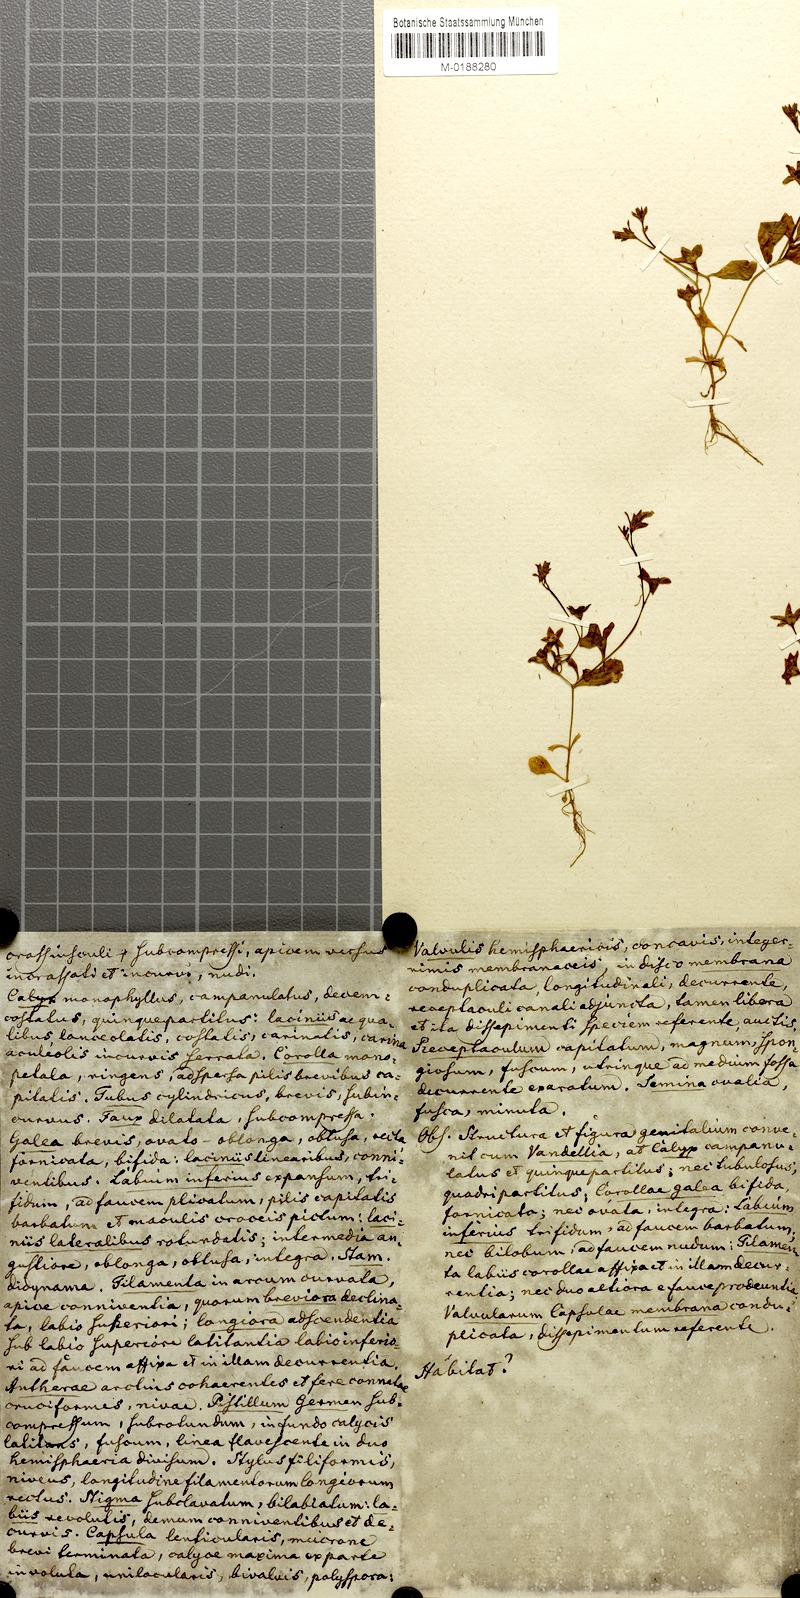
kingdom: Plantae
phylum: Tracheophyta
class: Magnoliopsida
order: Lamiales
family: Mazaceae
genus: Mazus
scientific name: Mazus pumilus
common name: Japanese mazus
